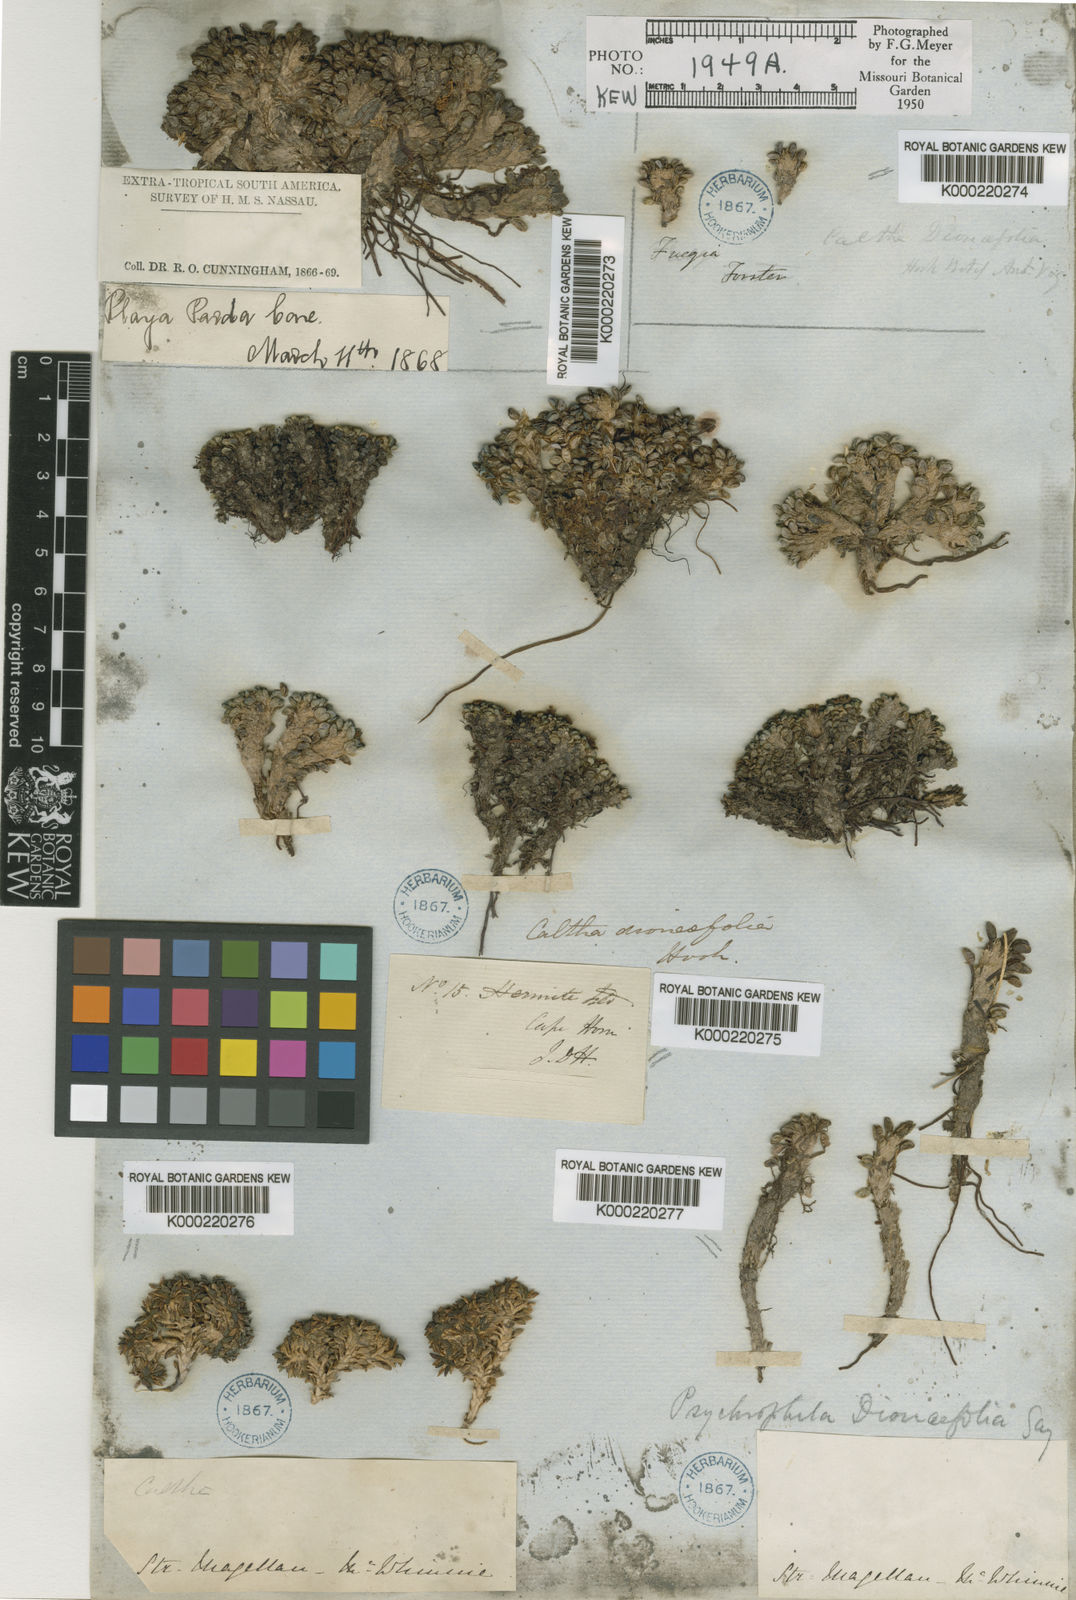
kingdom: Plantae
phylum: Tracheophyta
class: Magnoliopsida
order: Ranunculales
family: Ranunculaceae
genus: Caltha
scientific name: Caltha
